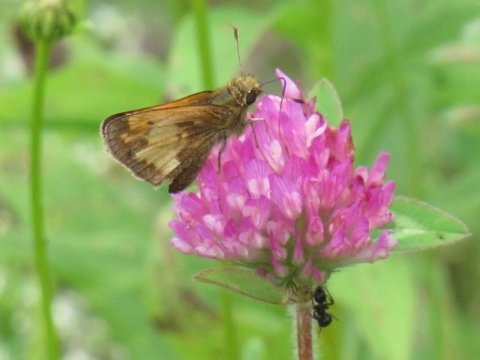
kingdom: Animalia
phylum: Arthropoda
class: Insecta
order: Lepidoptera
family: Hesperiidae
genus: Lon
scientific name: Lon hobomok
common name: Hobomok Skipper
